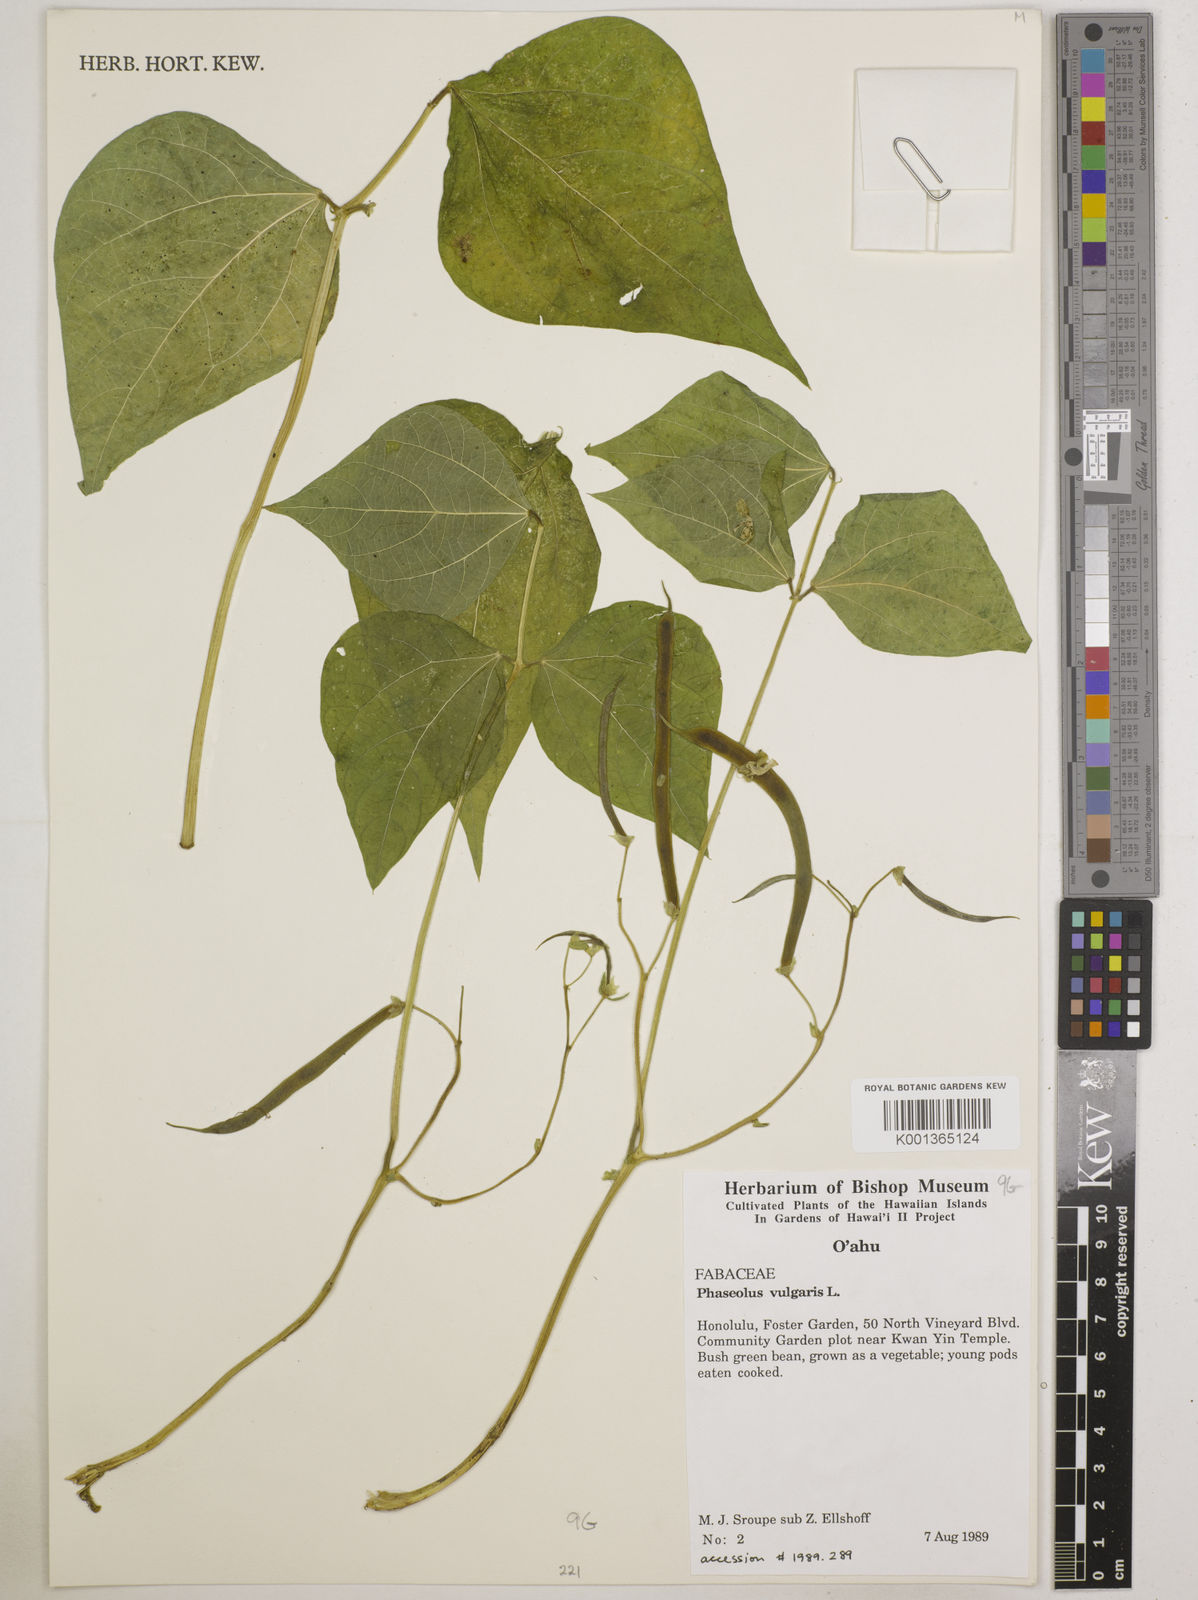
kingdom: Plantae
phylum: Tracheophyta
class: Magnoliopsida
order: Fabales
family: Fabaceae
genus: Phaseolus
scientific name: Phaseolus vulgaris
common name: Bean
